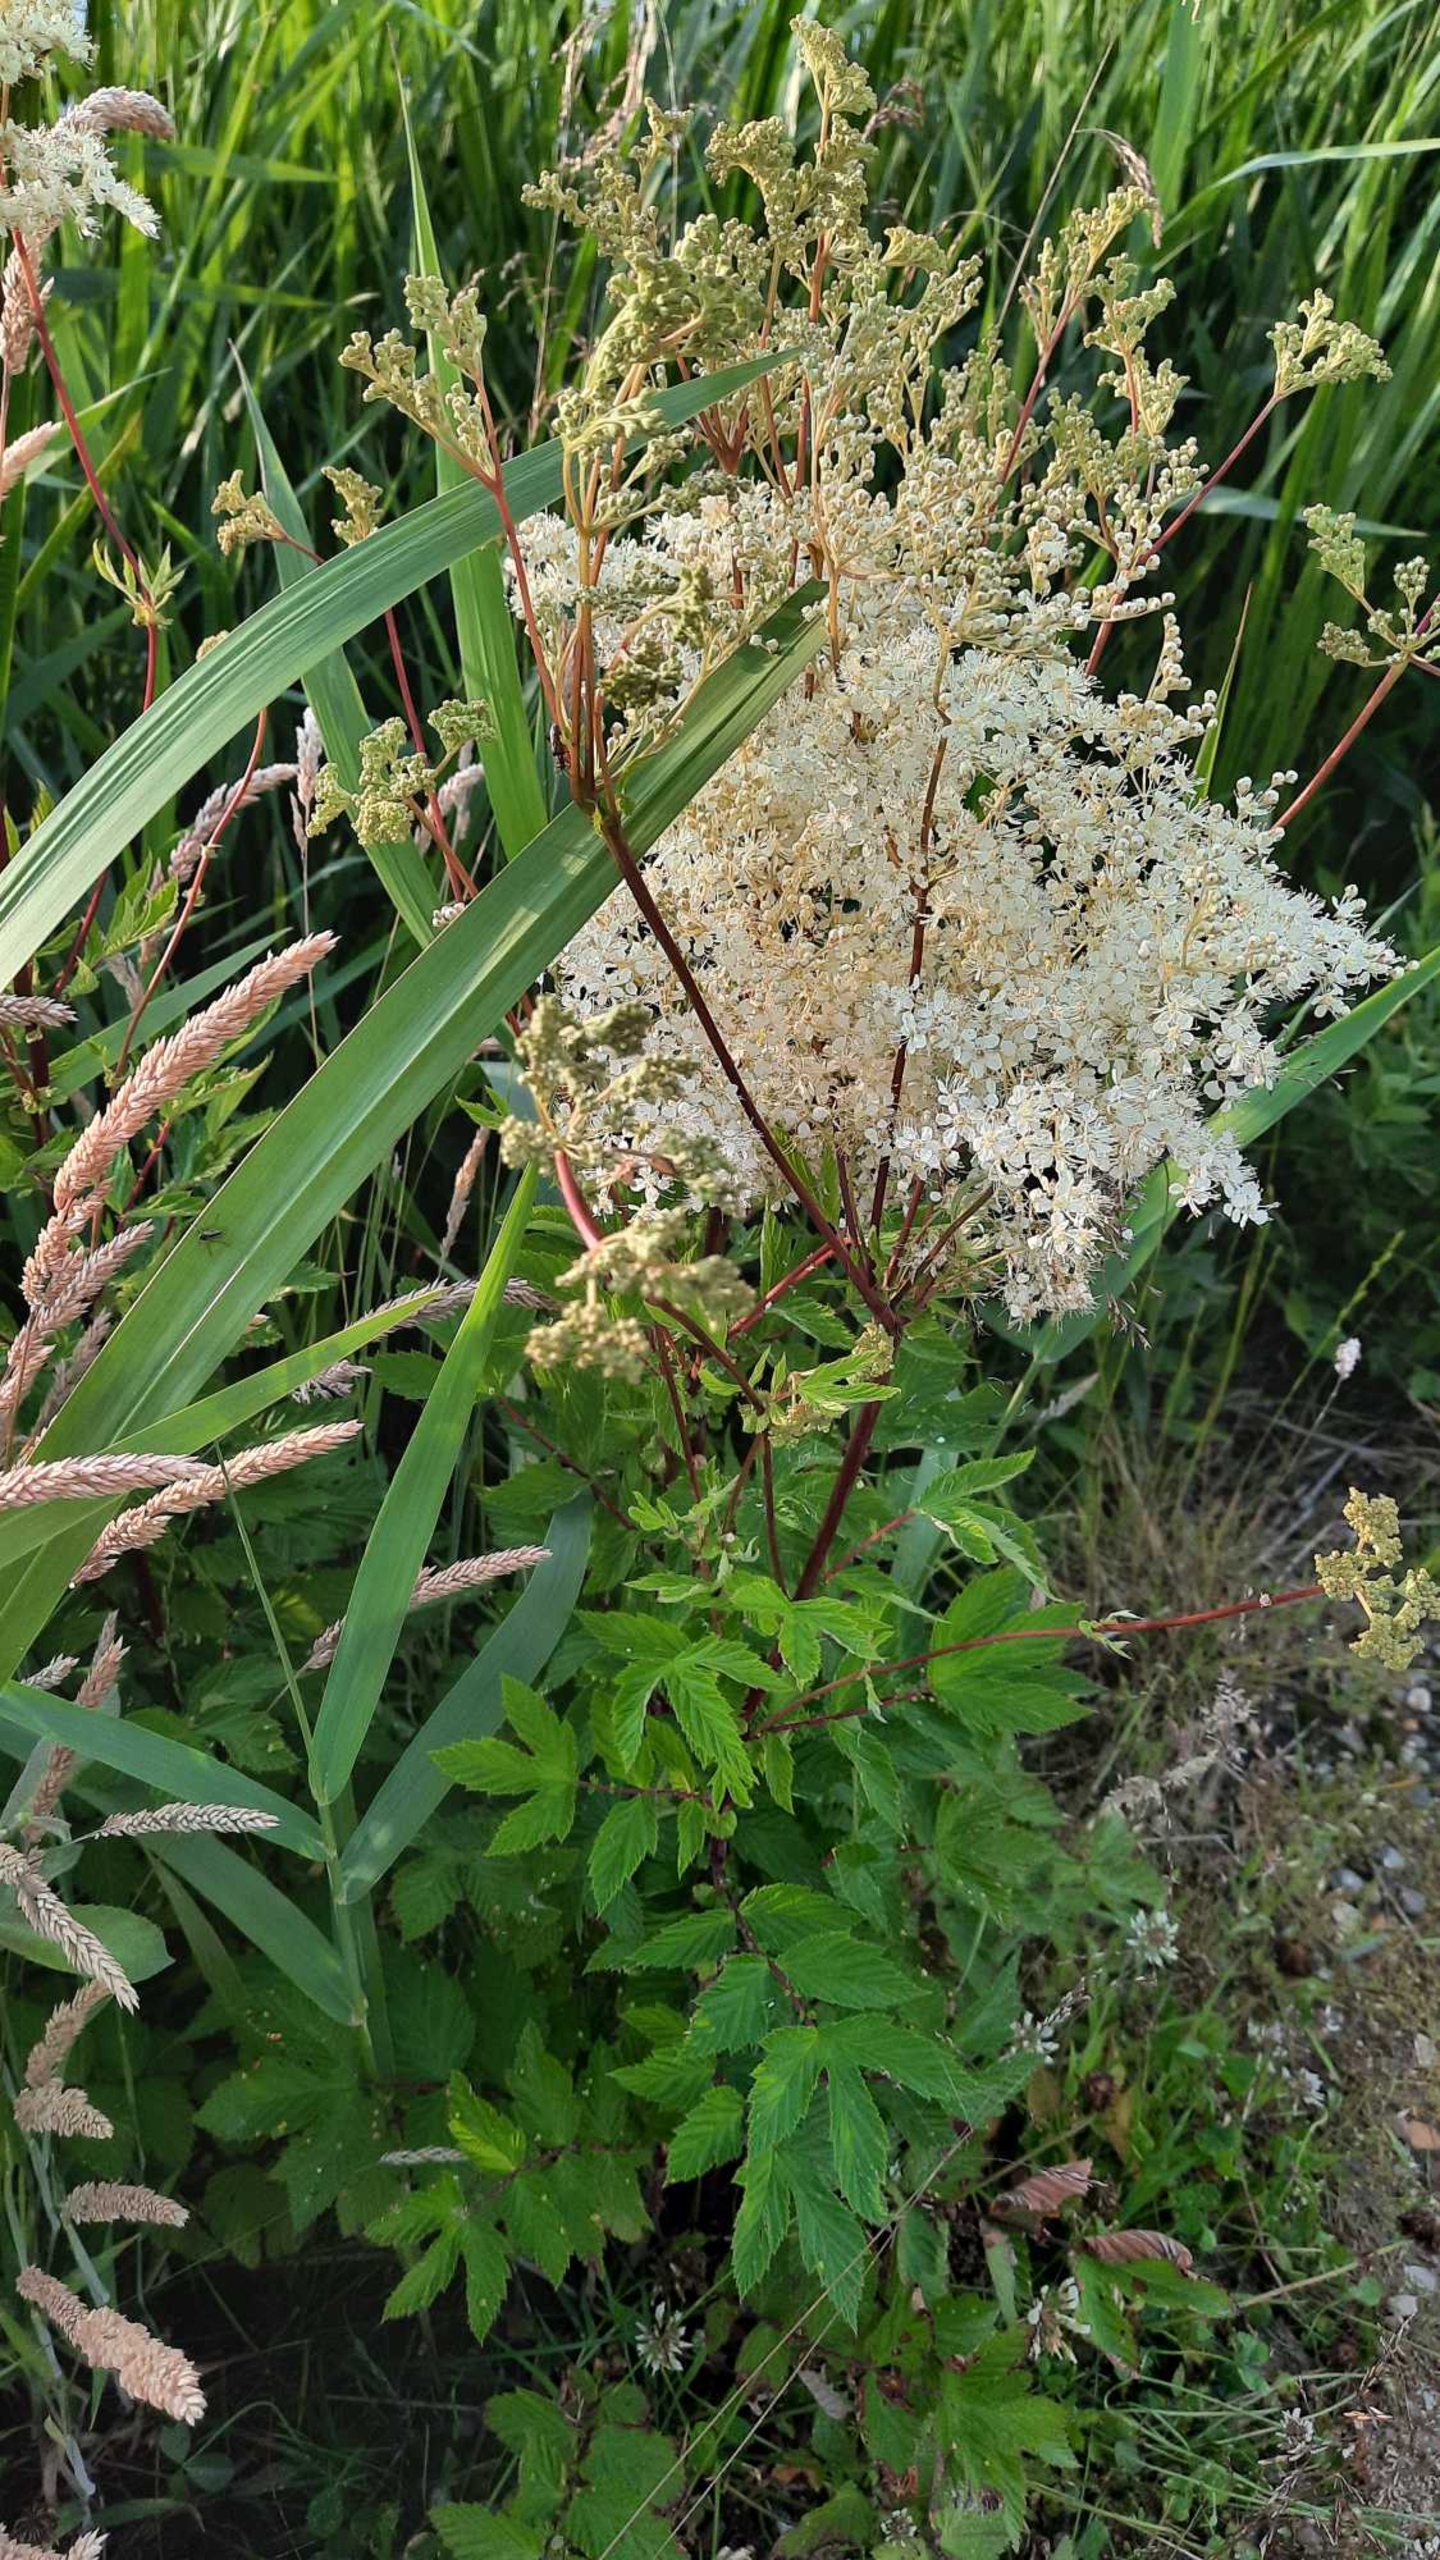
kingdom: Plantae
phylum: Tracheophyta
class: Magnoliopsida
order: Rosales
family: Rosaceae
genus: Filipendula
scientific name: Filipendula ulmaria
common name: Almindelig mjødurt
